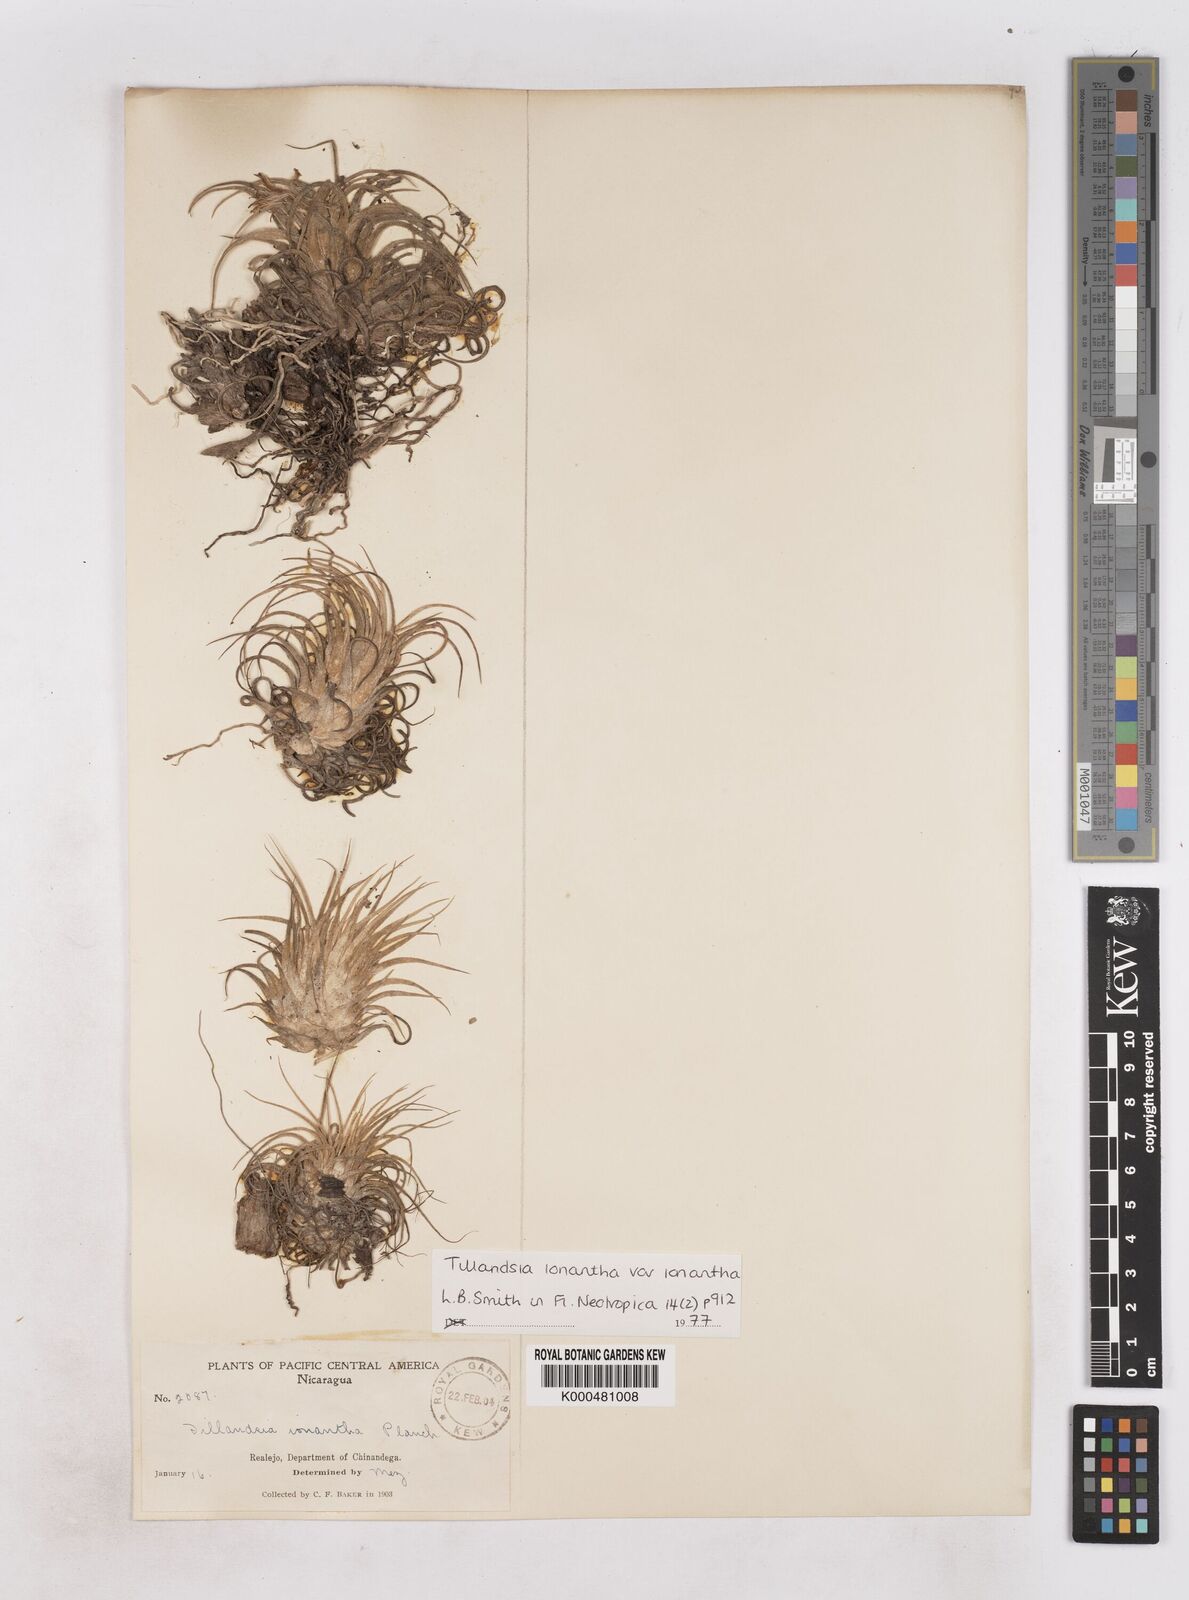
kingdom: Plantae
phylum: Tracheophyta
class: Liliopsida
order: Poales
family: Bromeliaceae
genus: Tillandsia
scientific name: Tillandsia ionantha
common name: Sky plant
